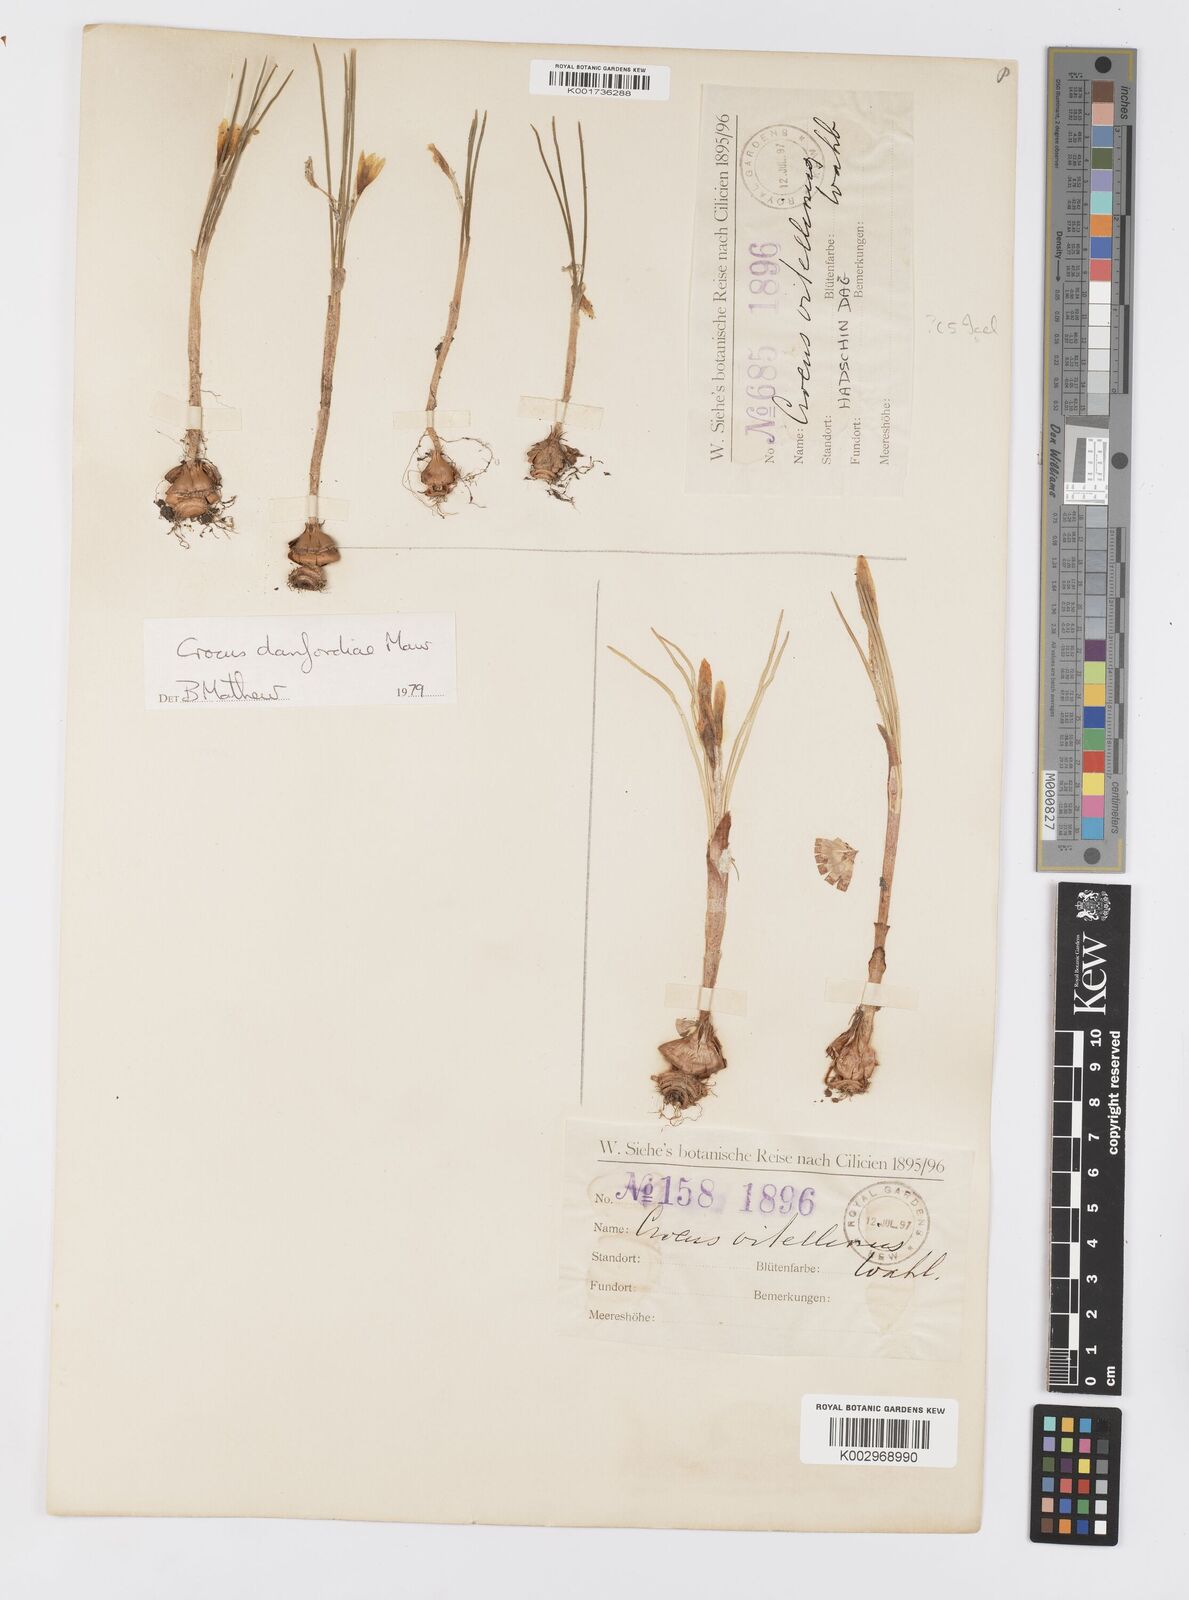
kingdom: Plantae
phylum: Tracheophyta
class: Liliopsida
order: Asparagales
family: Iridaceae
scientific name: Iridaceae
